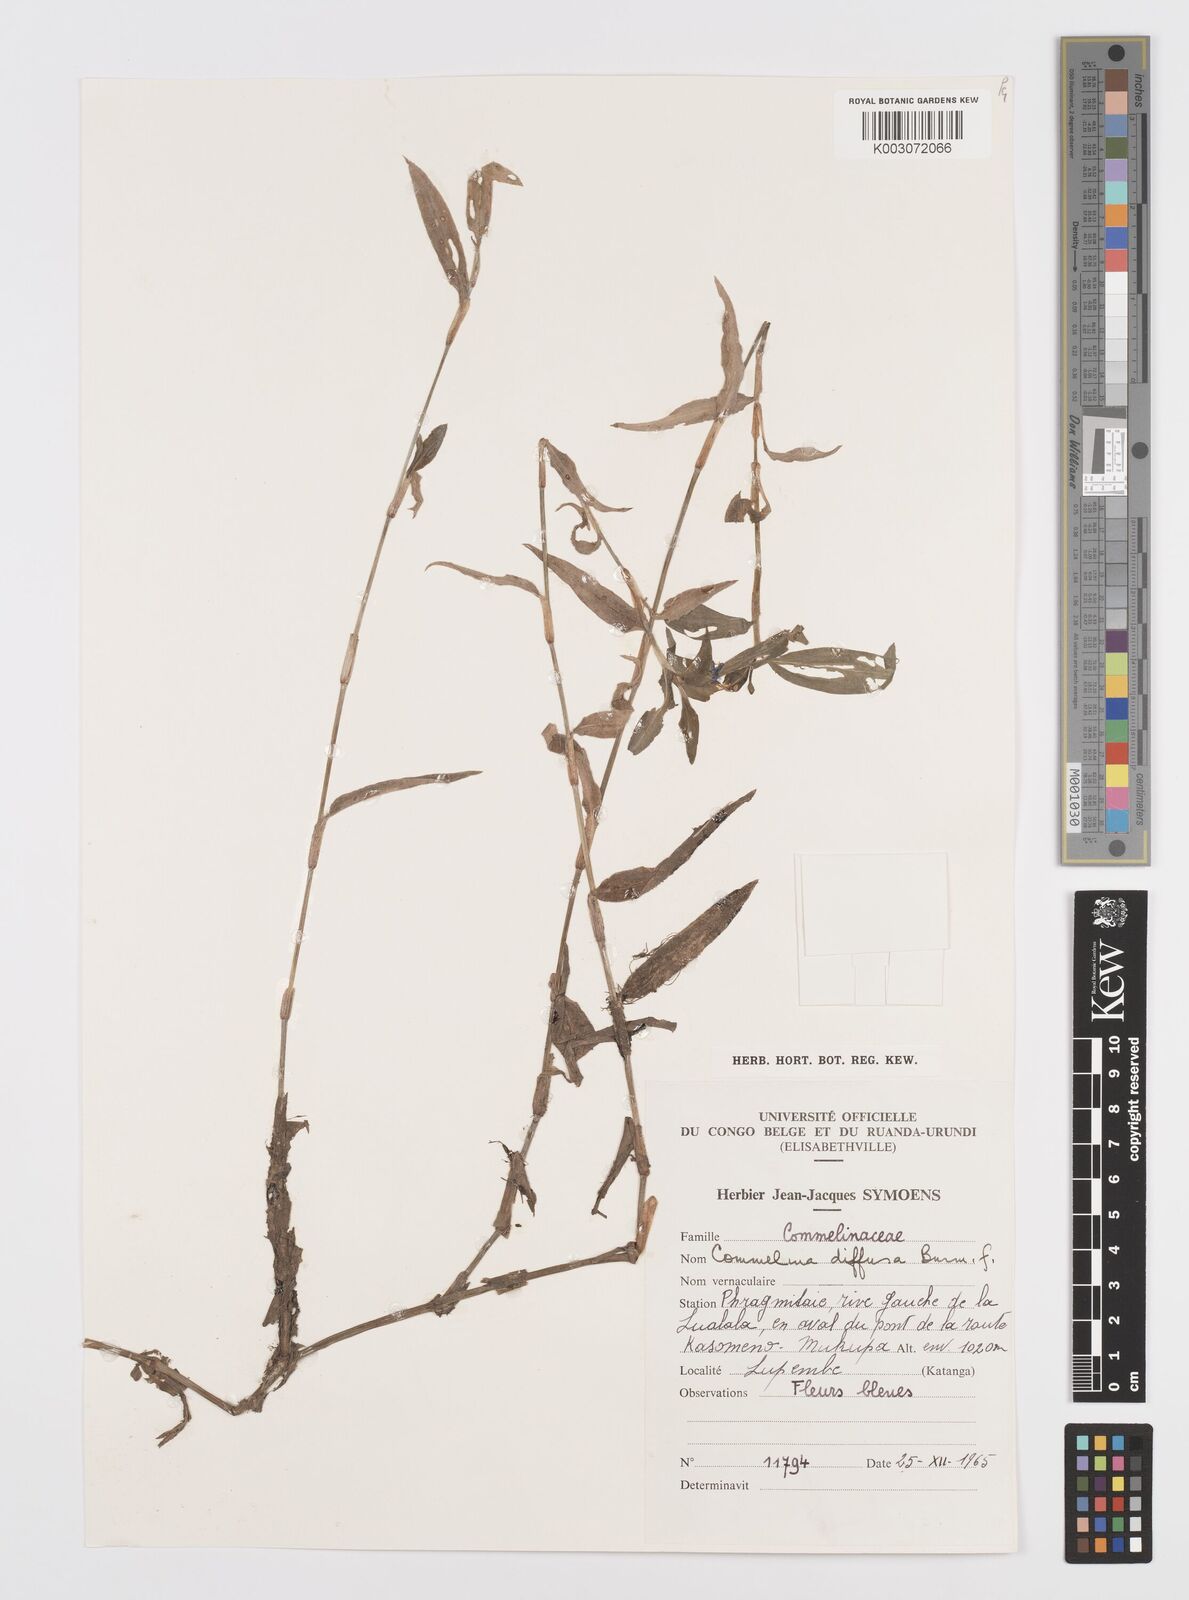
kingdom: Plantae
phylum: Tracheophyta
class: Liliopsida
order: Commelinales
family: Commelinaceae
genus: Commelina
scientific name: Commelina diffusa
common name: Climbing dayflower
